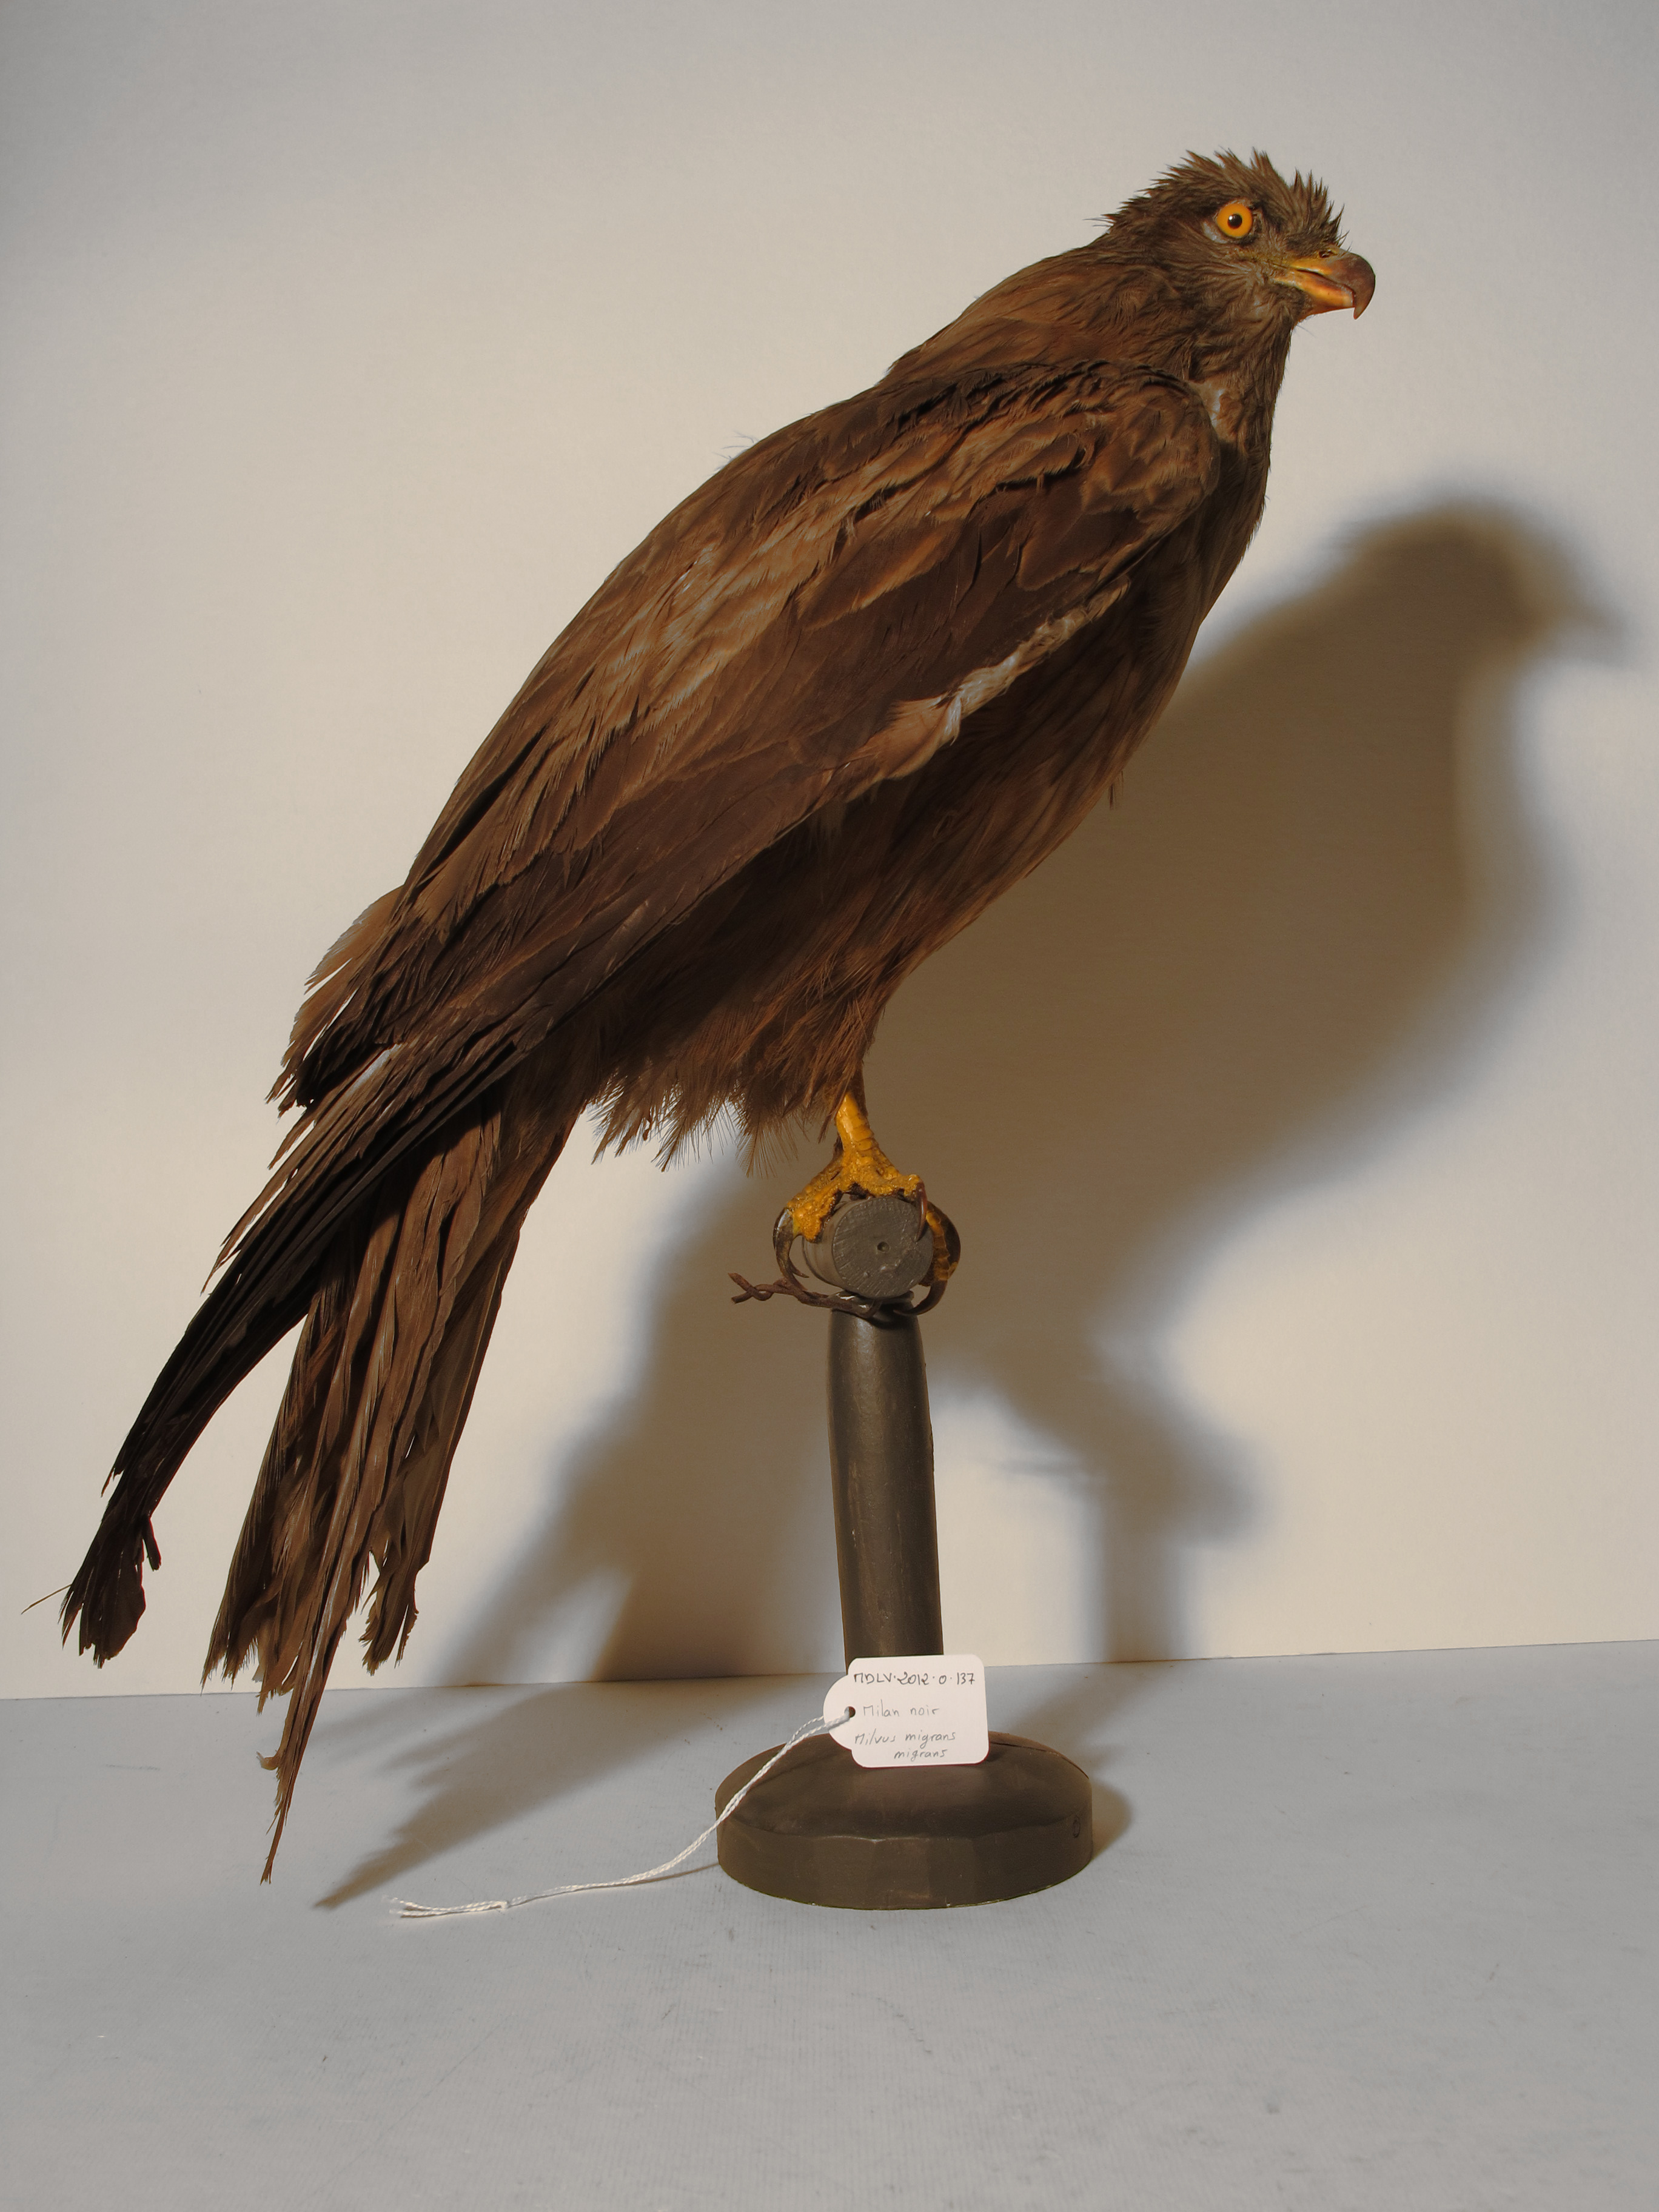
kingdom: Animalia
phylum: Chordata
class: Aves
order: Accipitriformes
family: Accipitridae
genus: Milvus
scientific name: Milvus migrans
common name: Black Kite
